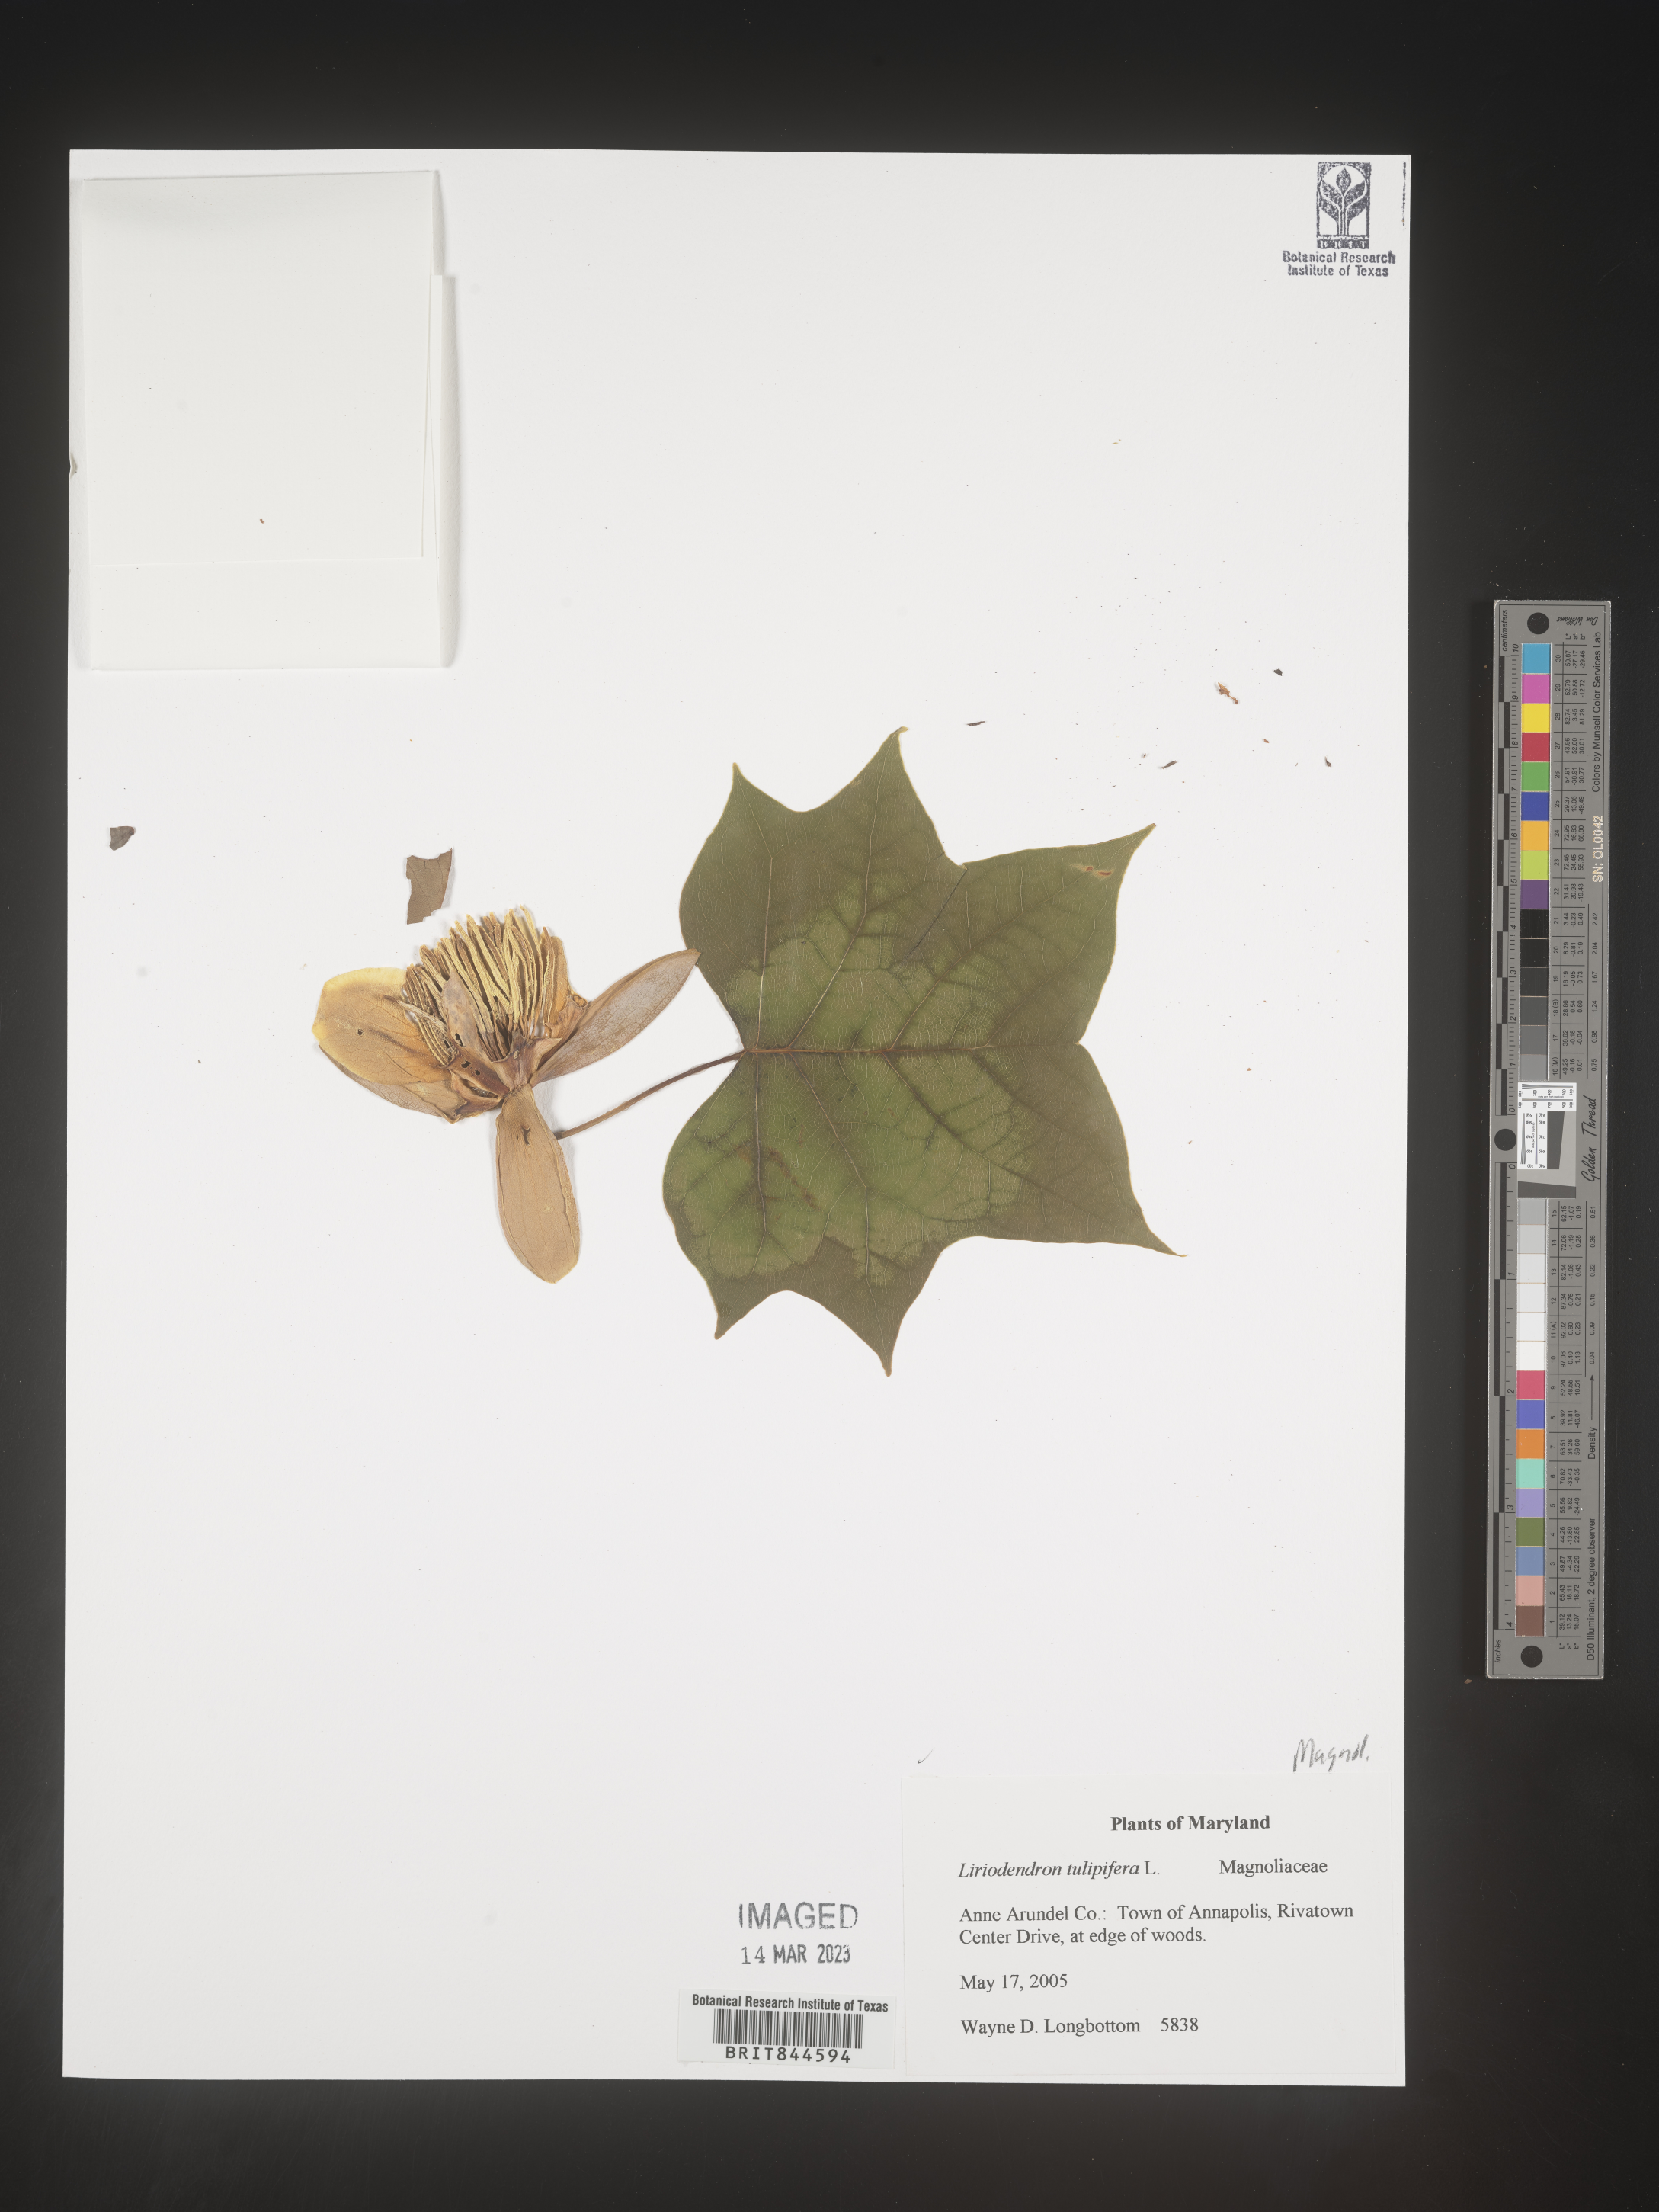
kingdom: Plantae
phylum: Tracheophyta
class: Magnoliopsida
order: Magnoliales
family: Magnoliaceae
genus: Liriodendron
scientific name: Liriodendron tulipifera
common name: Tulip tree
